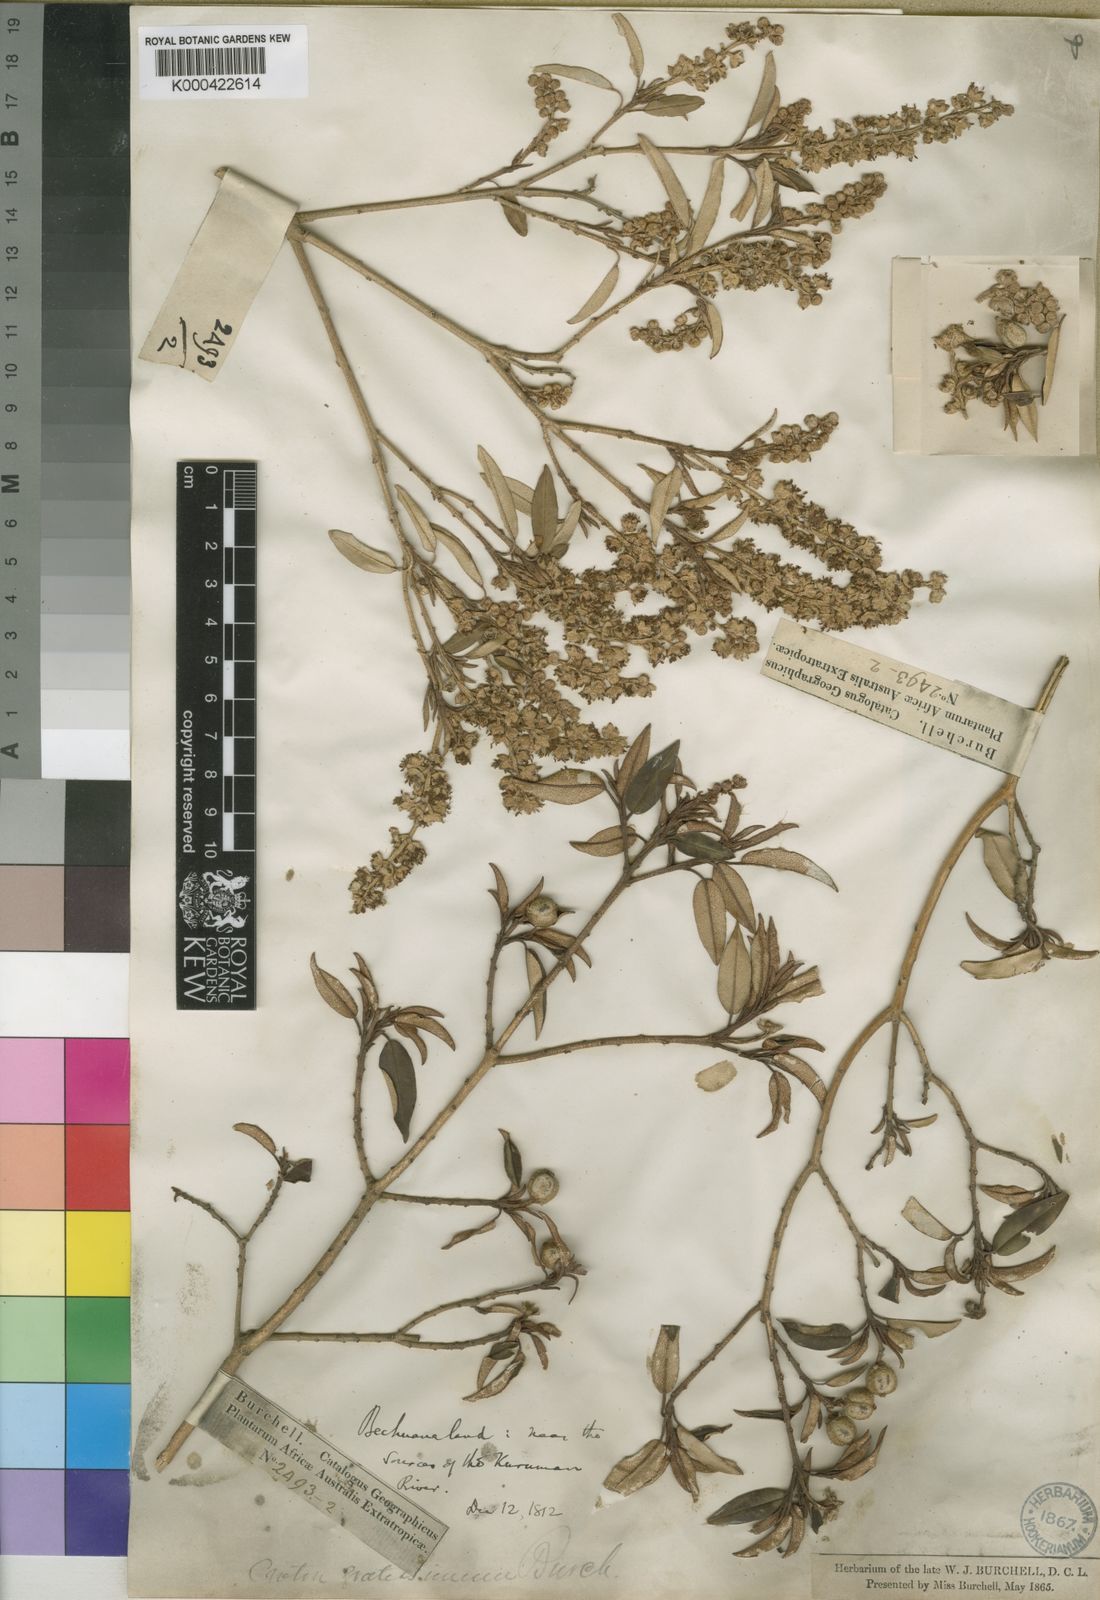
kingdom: Plantae
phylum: Tracheophyta
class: Magnoliopsida
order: Malpighiales
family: Euphorbiaceae
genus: Croton
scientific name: Croton gratissimus
